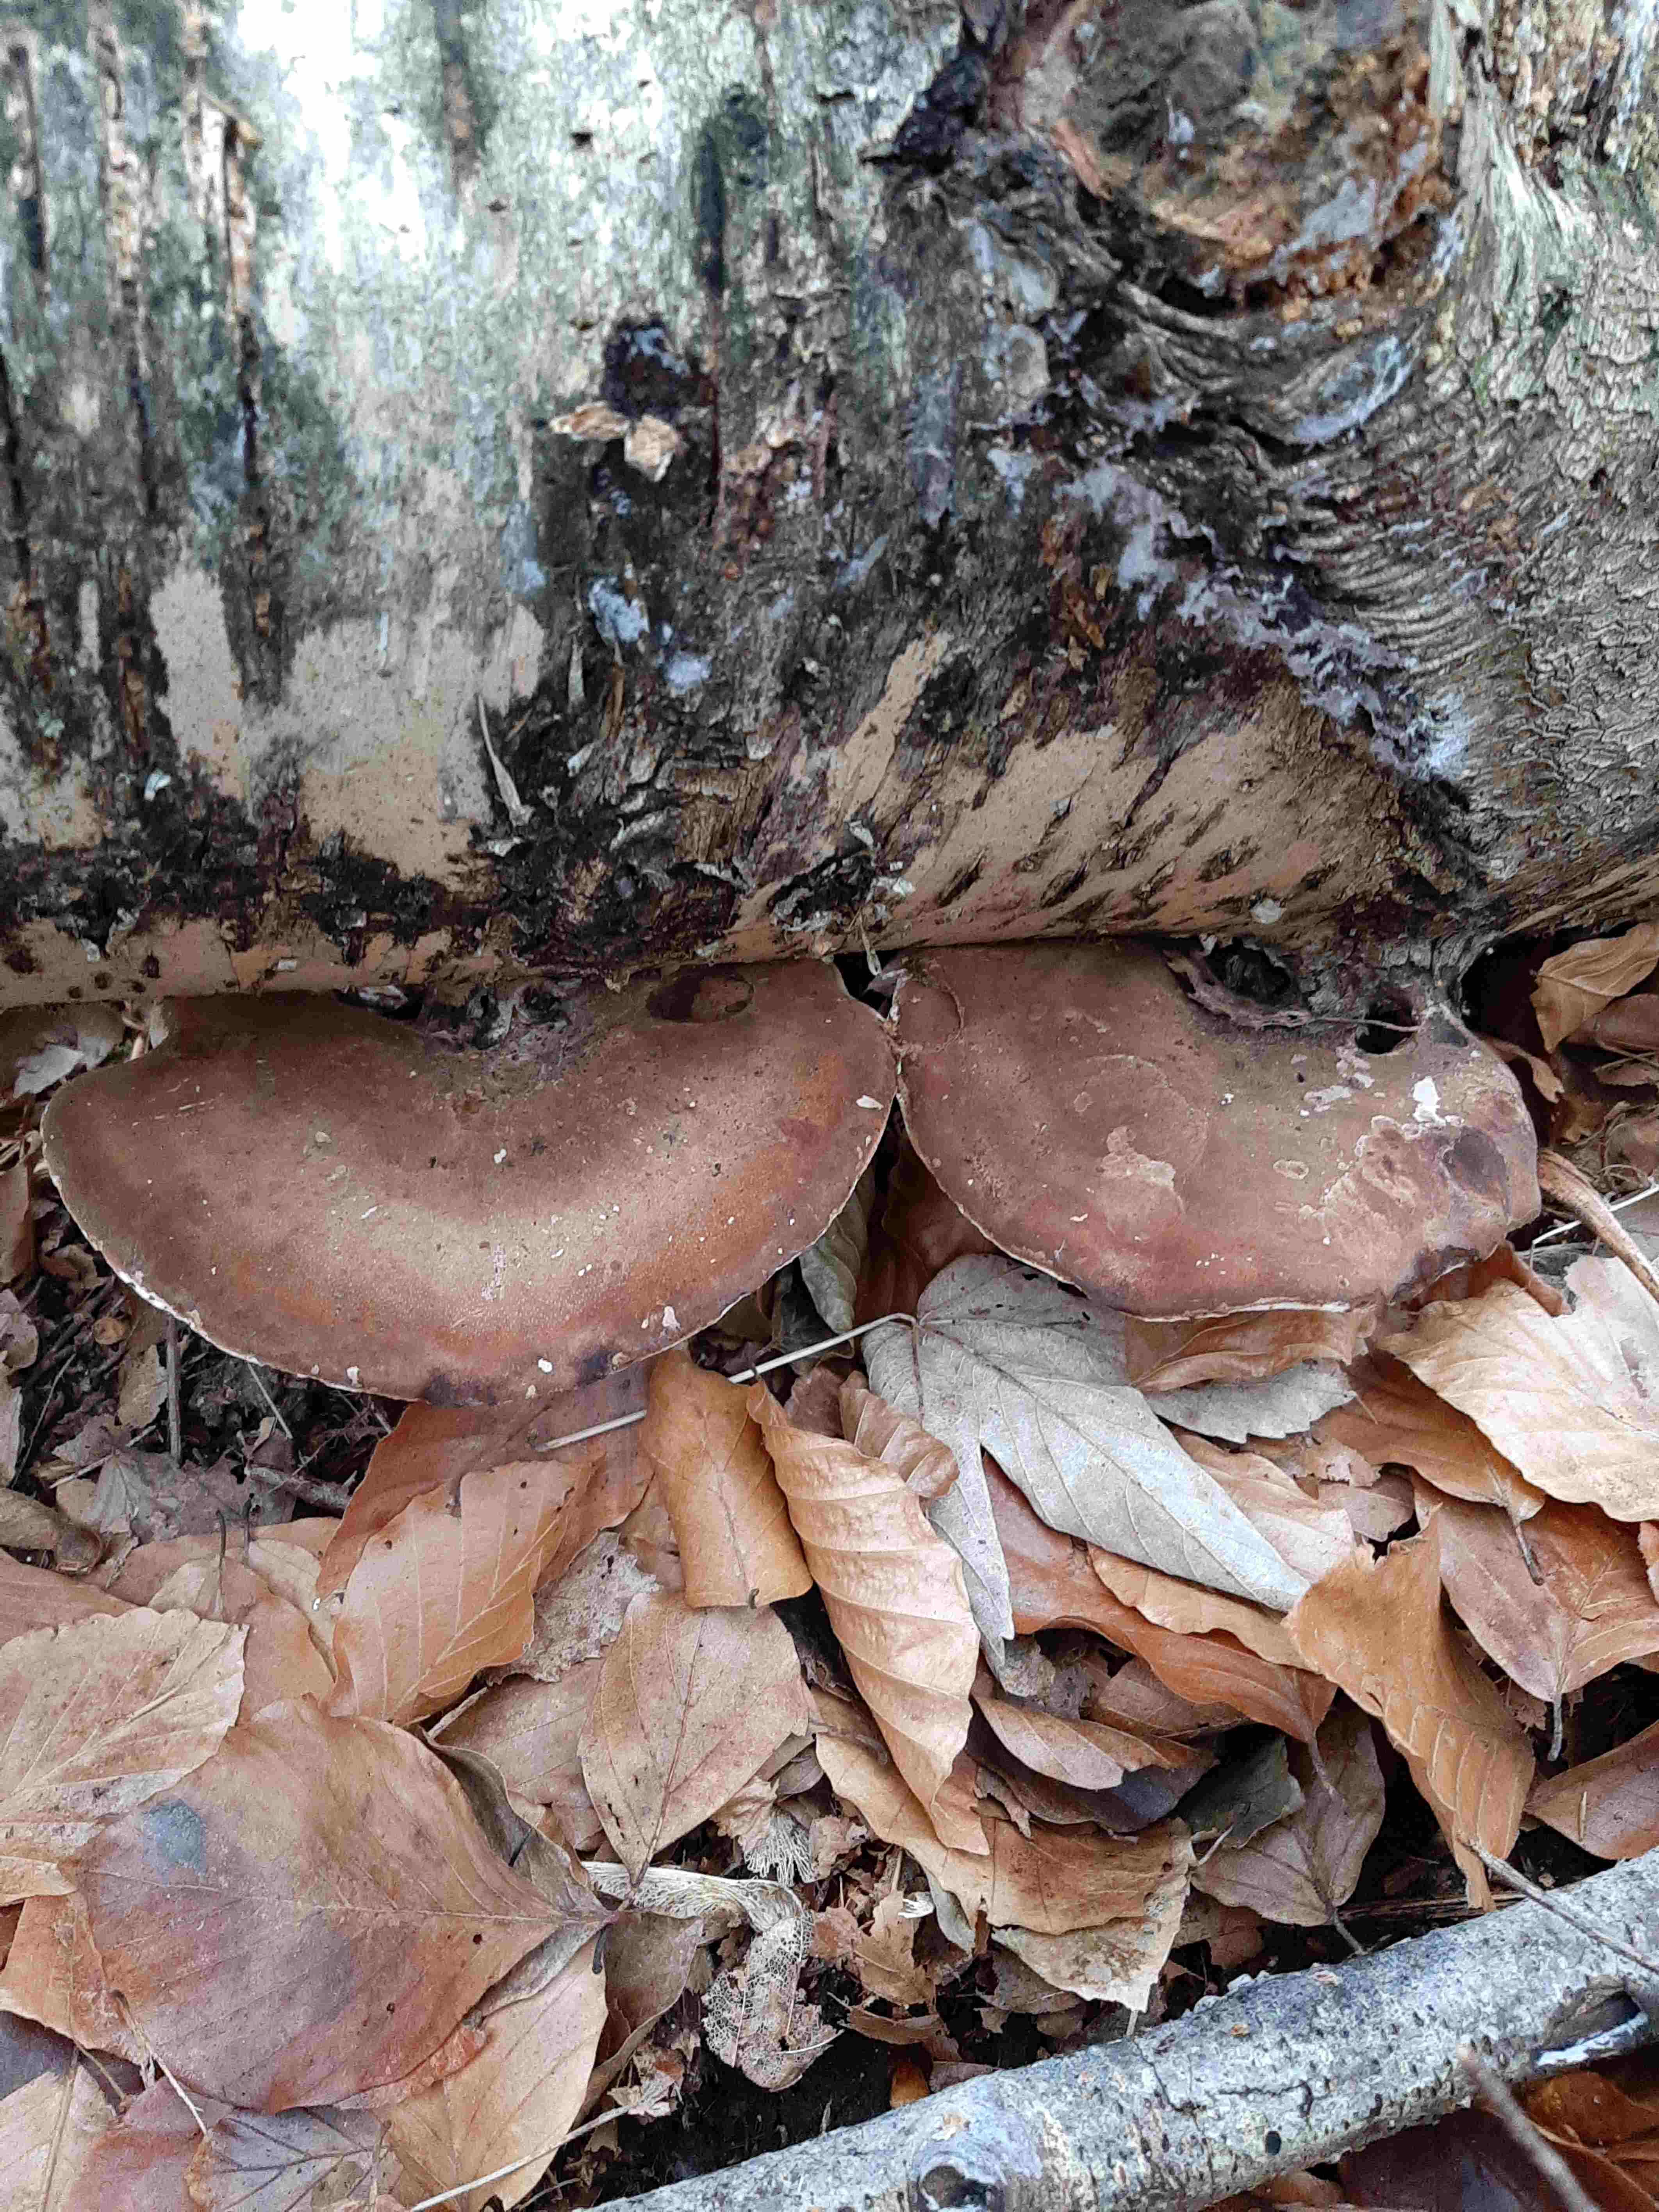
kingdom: Fungi
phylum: Basidiomycota
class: Agaricomycetes
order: Polyporales
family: Fomitopsidaceae
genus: Fomitopsis
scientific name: Fomitopsis betulina
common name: birkeporesvamp
